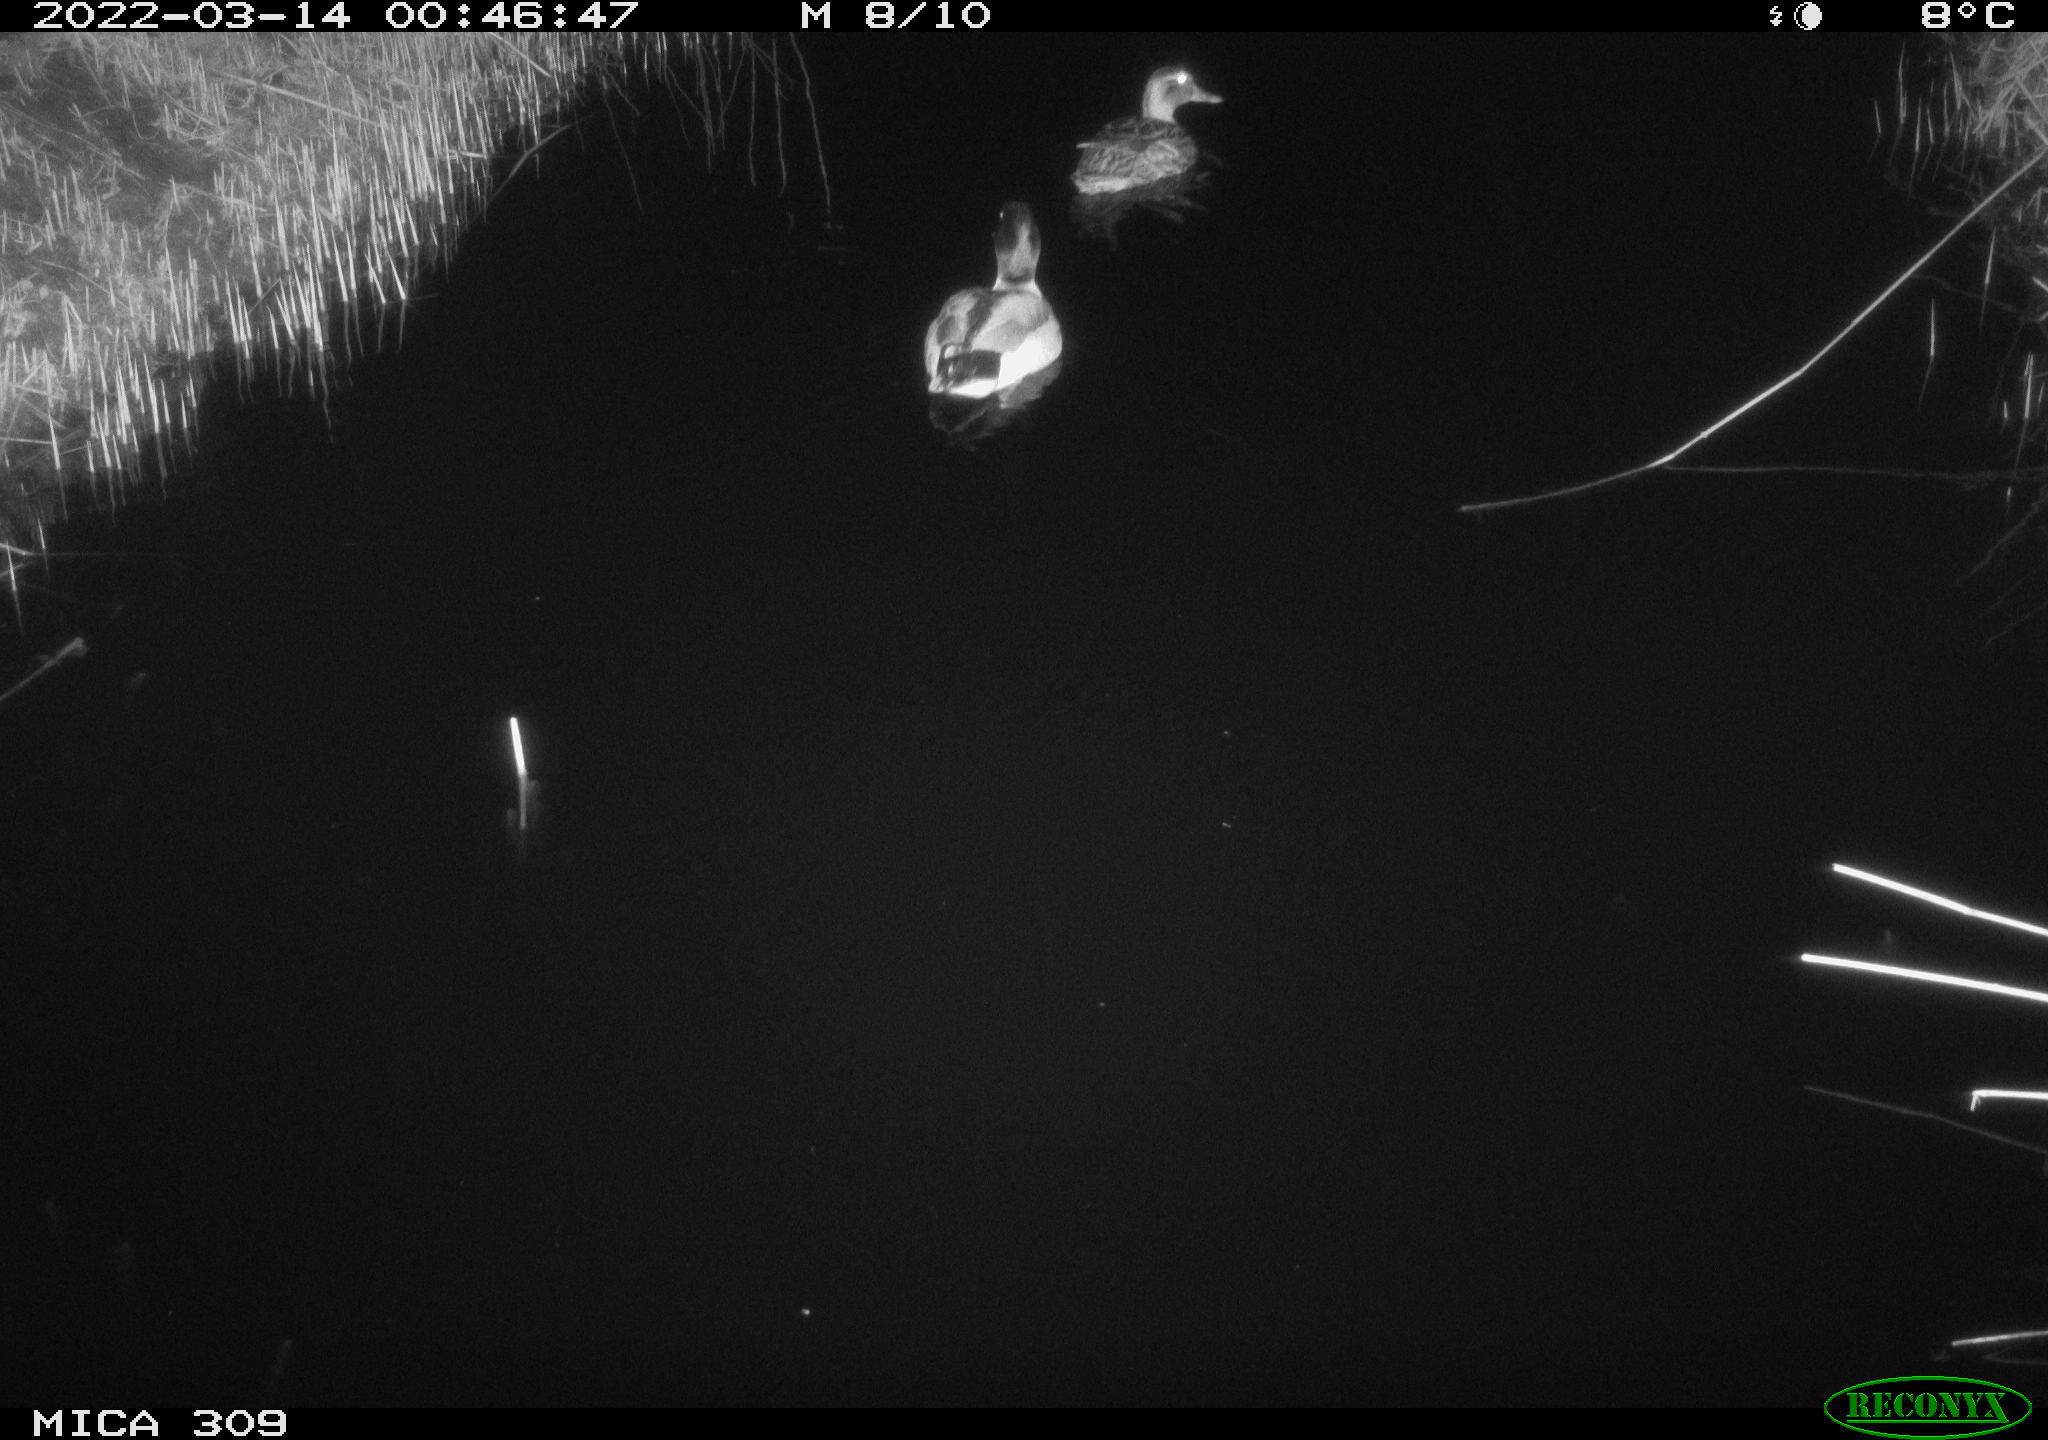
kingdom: Animalia
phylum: Chordata
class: Aves
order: Anseriformes
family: Anatidae
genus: Anas
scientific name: Anas platyrhynchos
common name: Mallard
